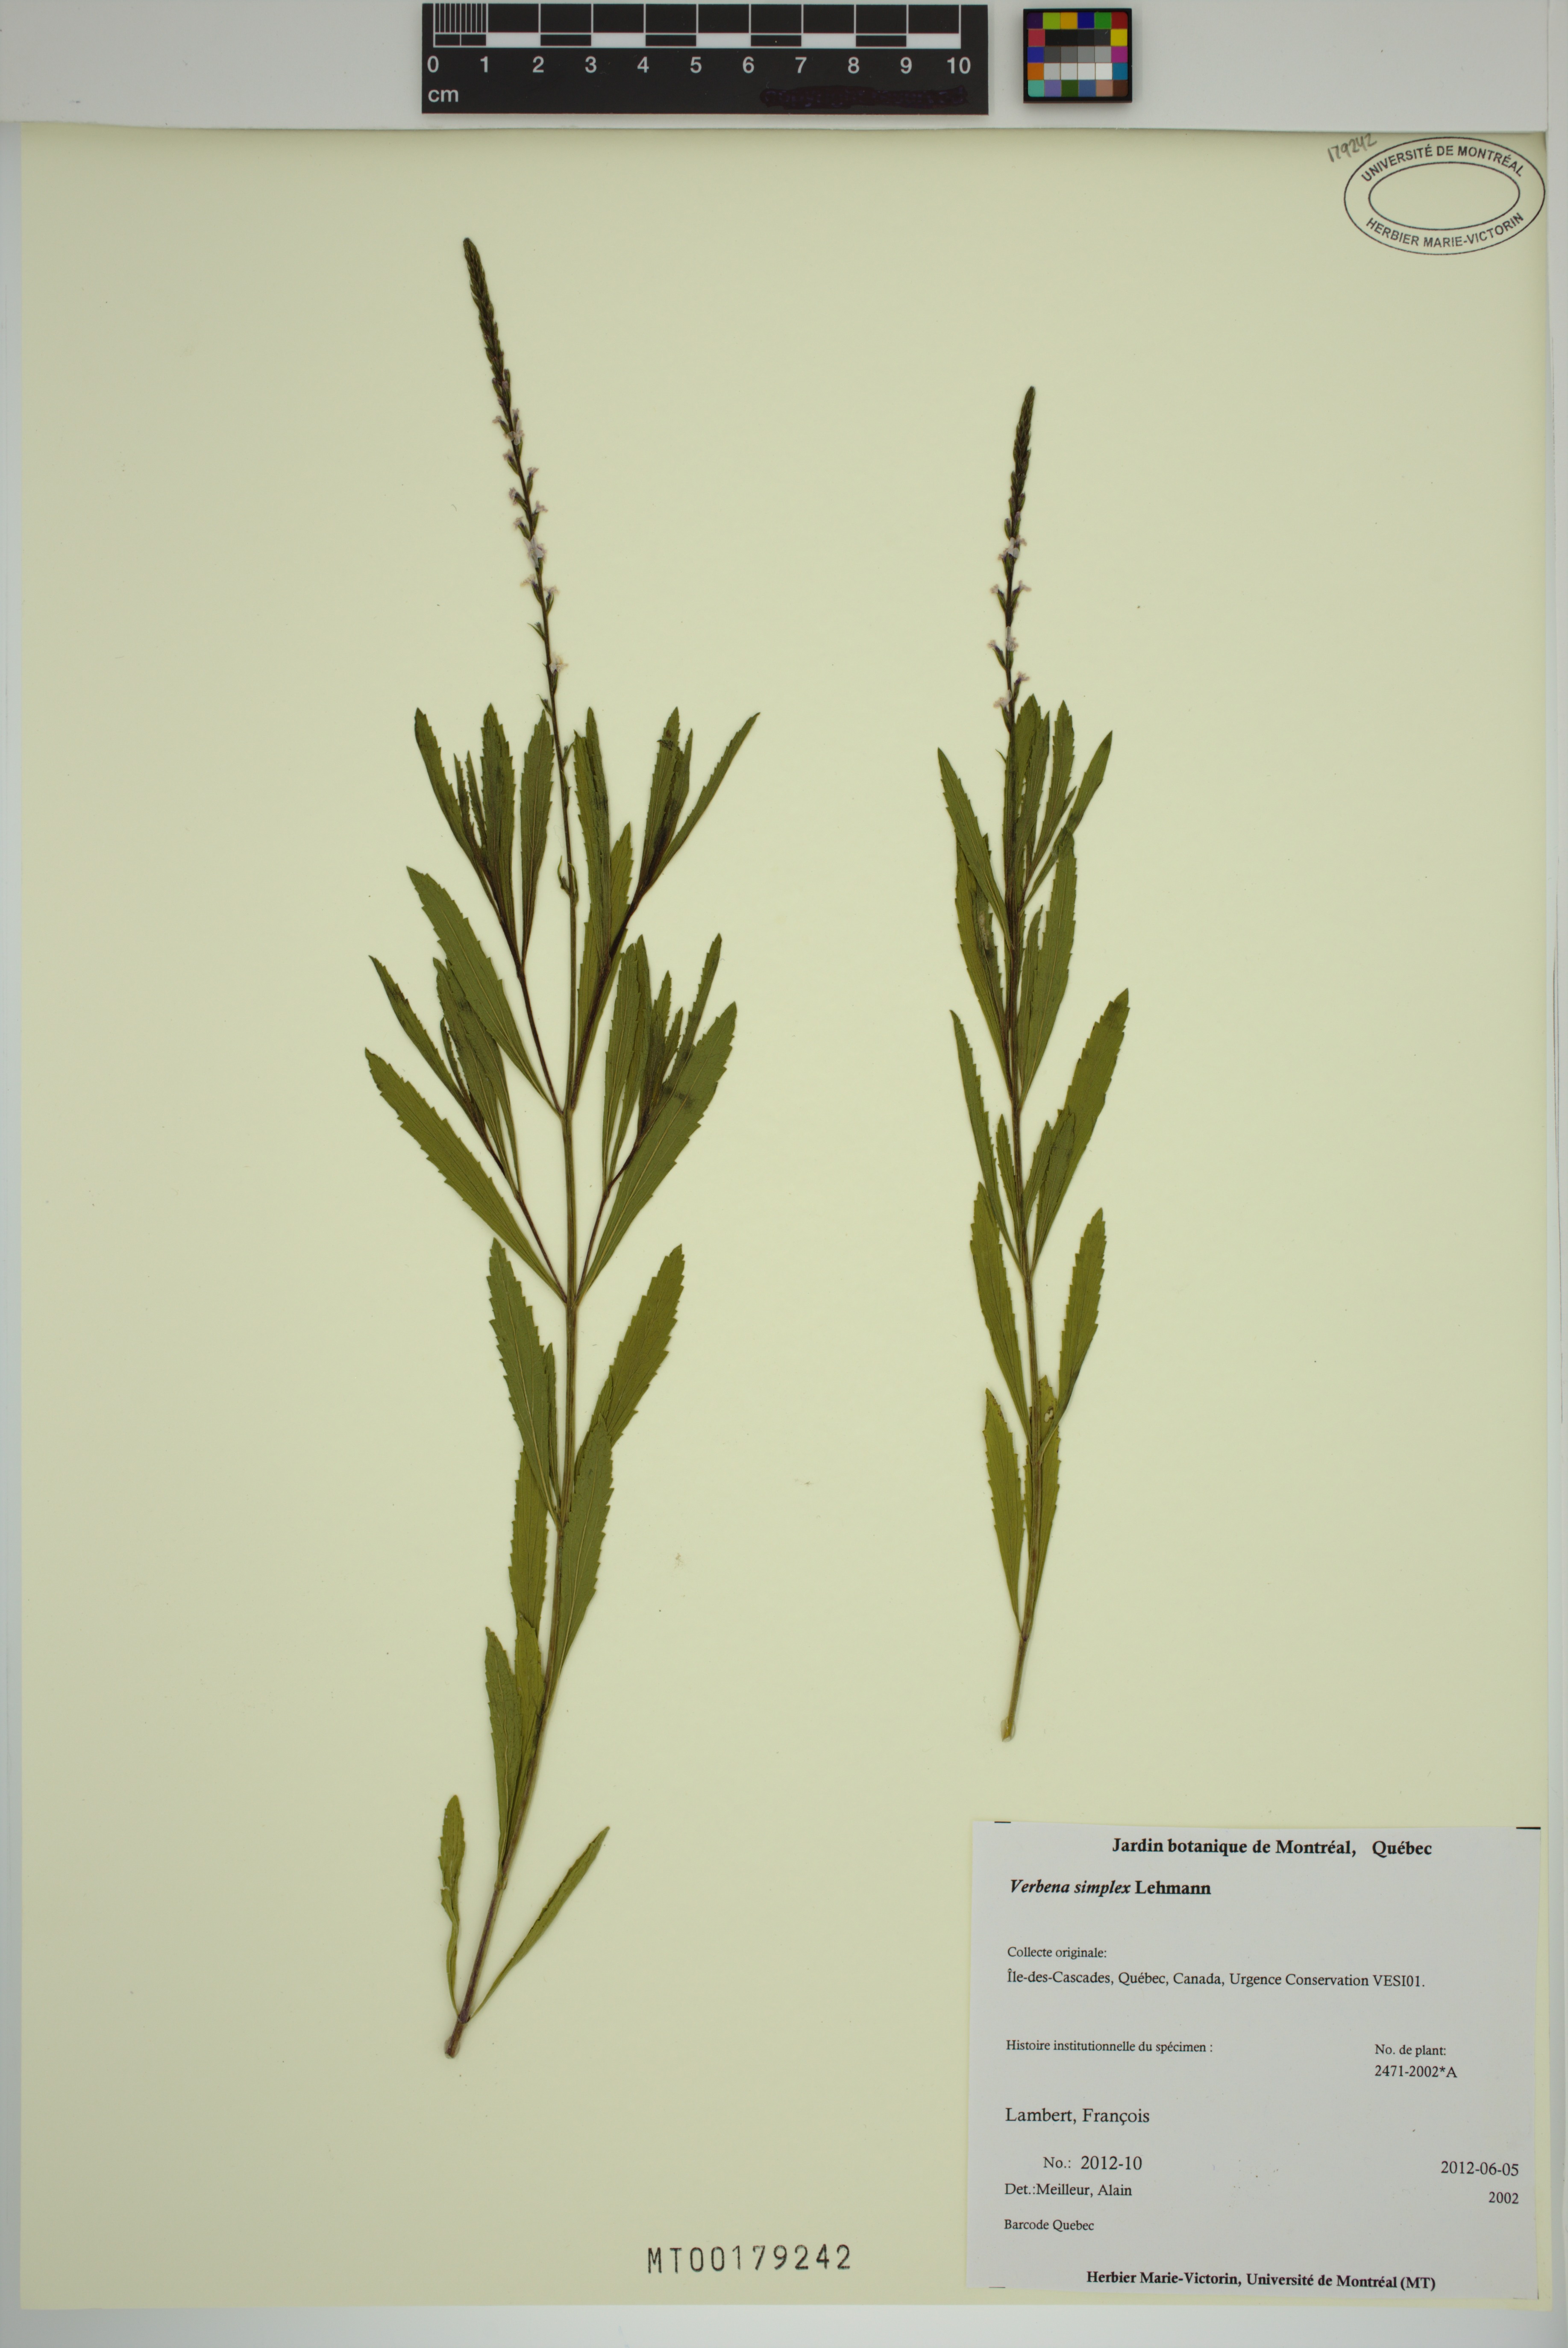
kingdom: Plantae
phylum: Tracheophyta
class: Magnoliopsida
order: Lamiales
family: Verbenaceae
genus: Verbena
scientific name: Verbena simplex
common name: Narrow-leaf vervain
